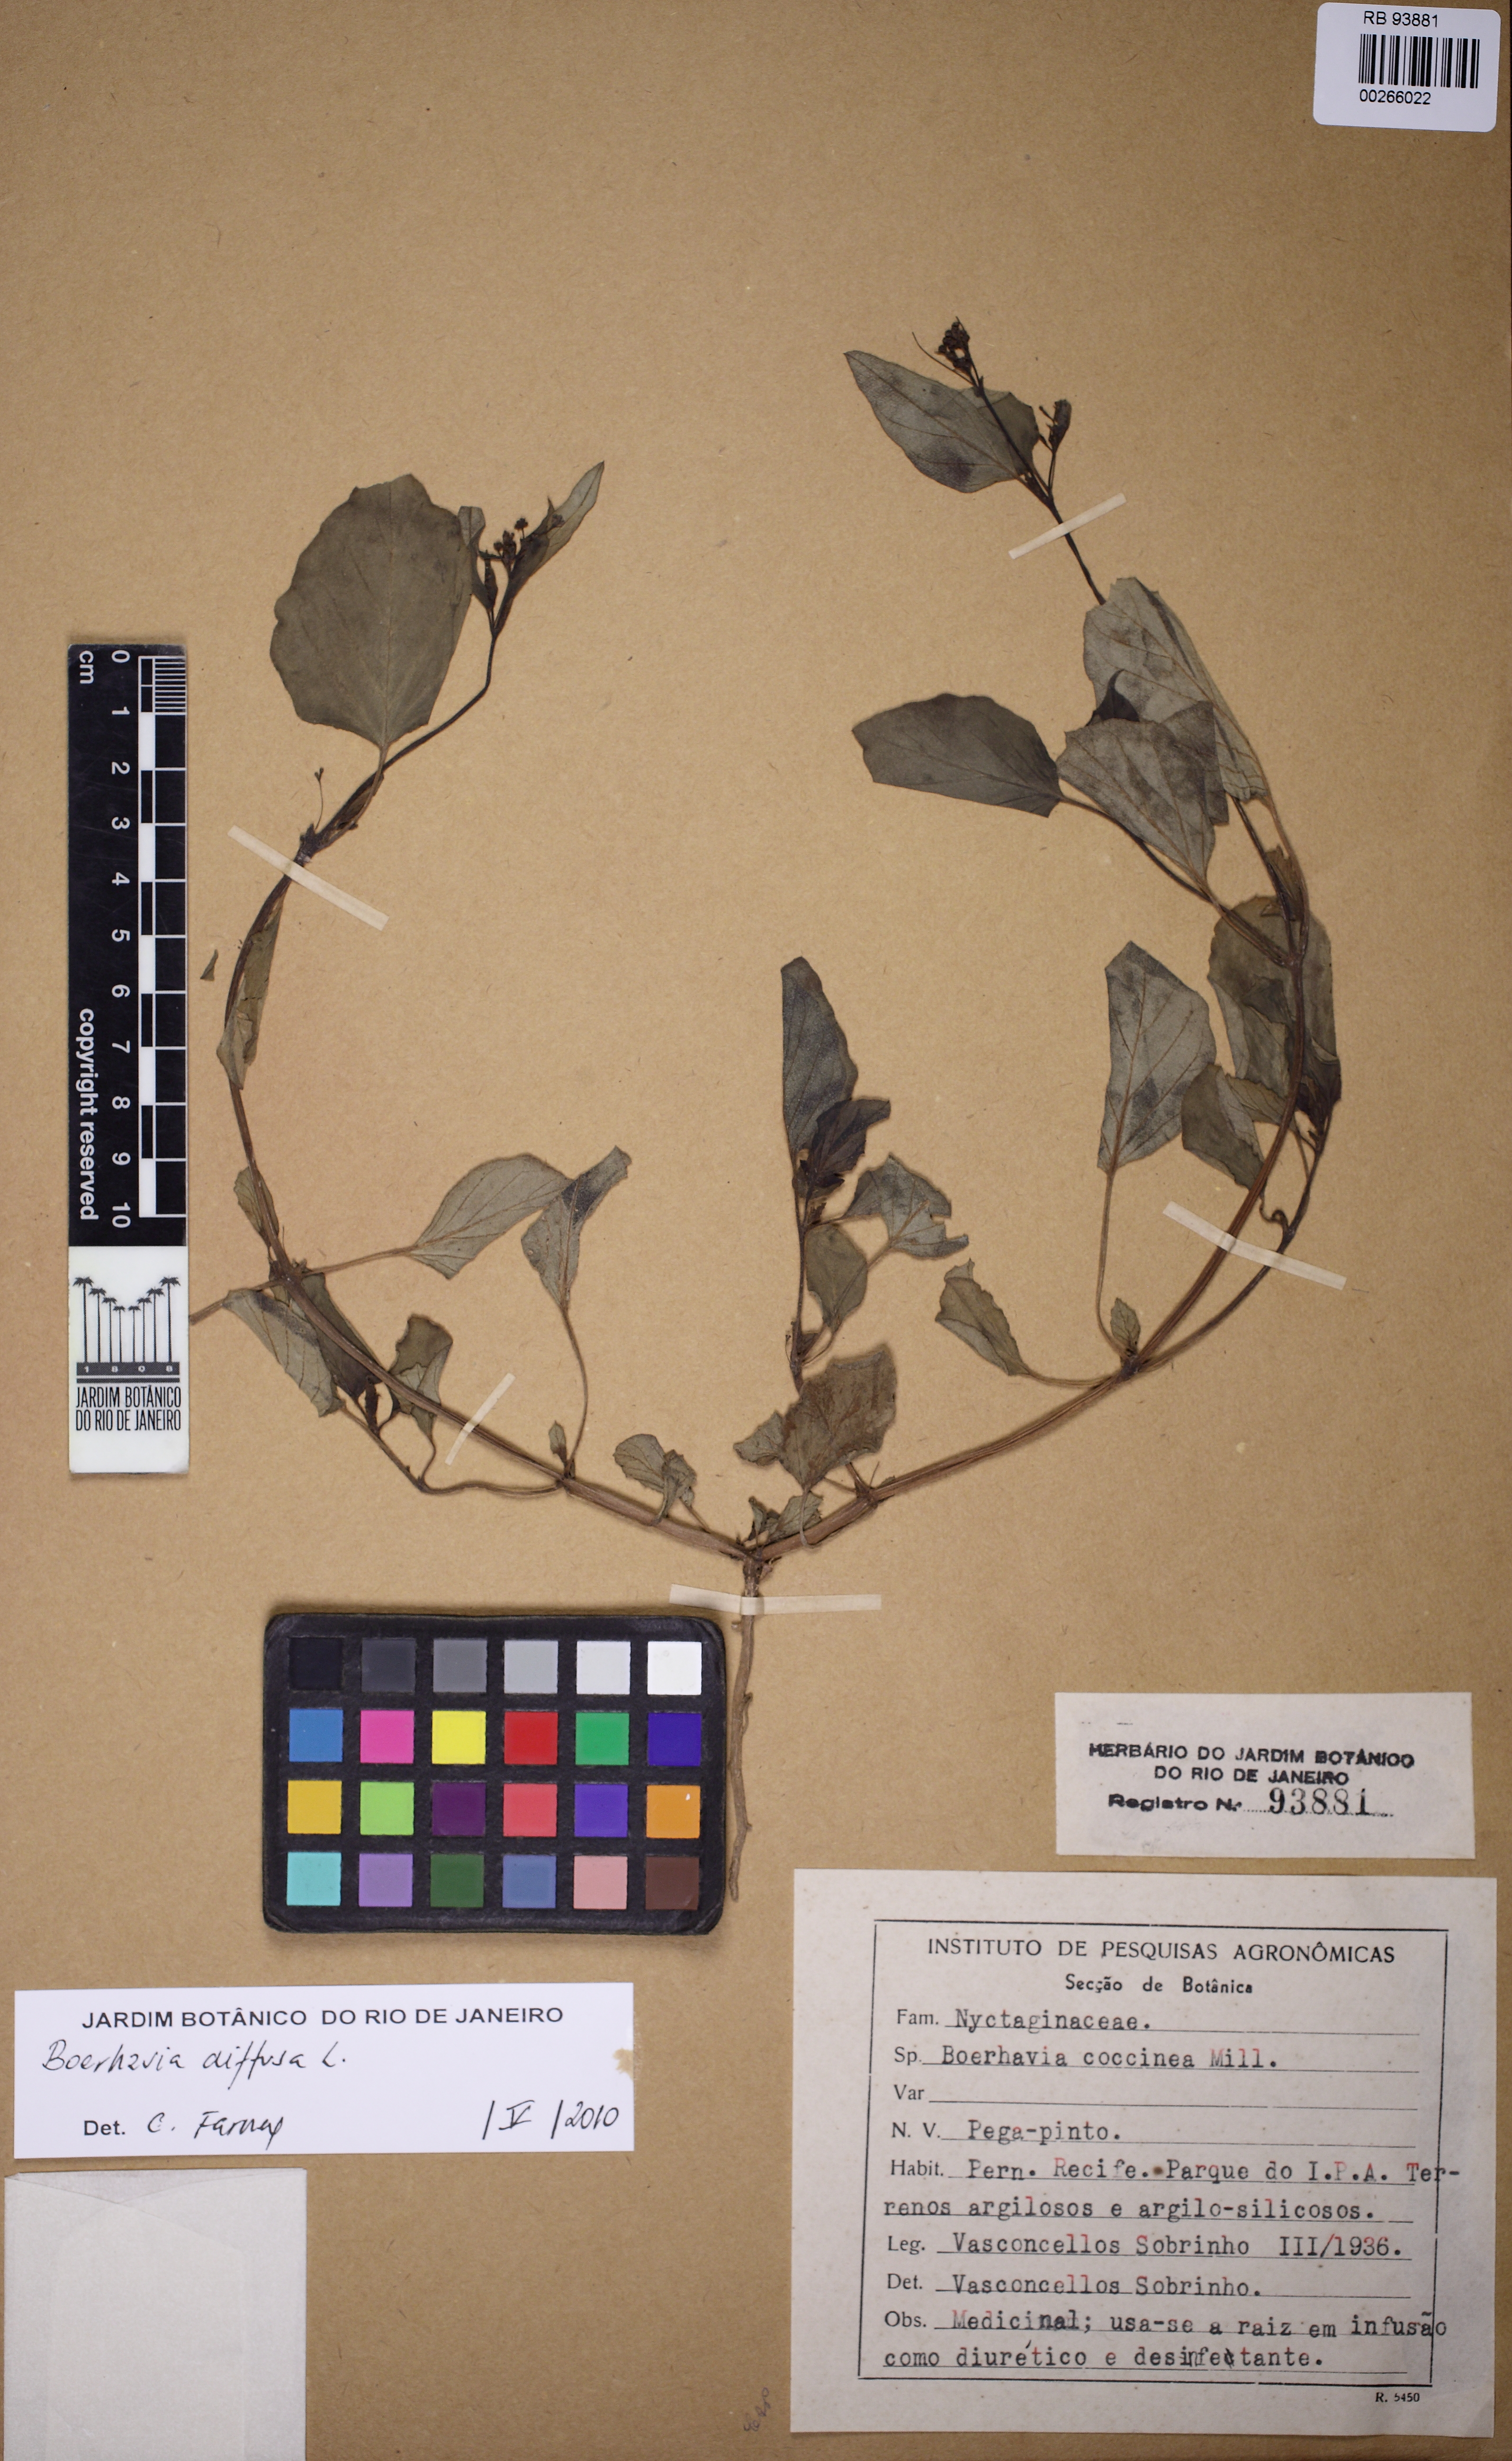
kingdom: Plantae
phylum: Tracheophyta
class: Magnoliopsida
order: Caryophyllales
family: Nyctaginaceae
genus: Boerhavia
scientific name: Boerhavia diffusa
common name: Red spiderling
